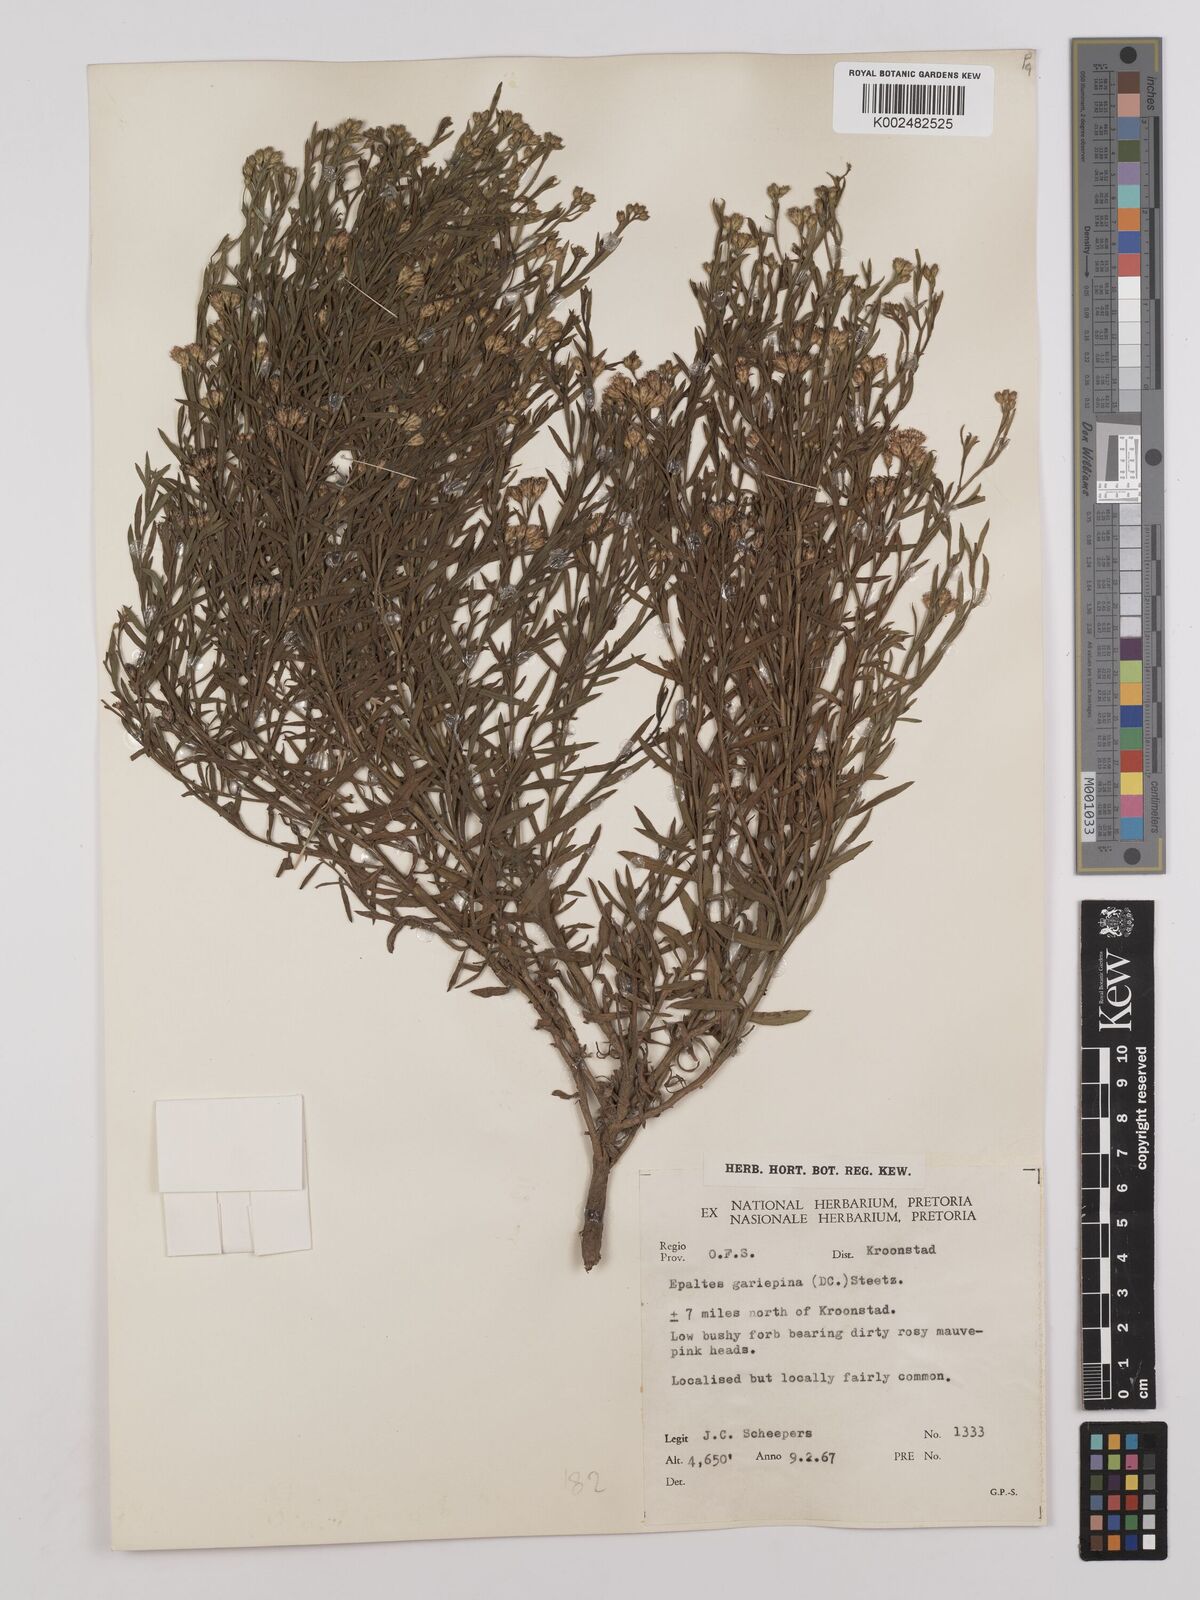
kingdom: Plantae
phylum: Tracheophyta
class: Magnoliopsida
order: Asterales
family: Asteraceae
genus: Litogyne
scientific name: Litogyne gariepina
